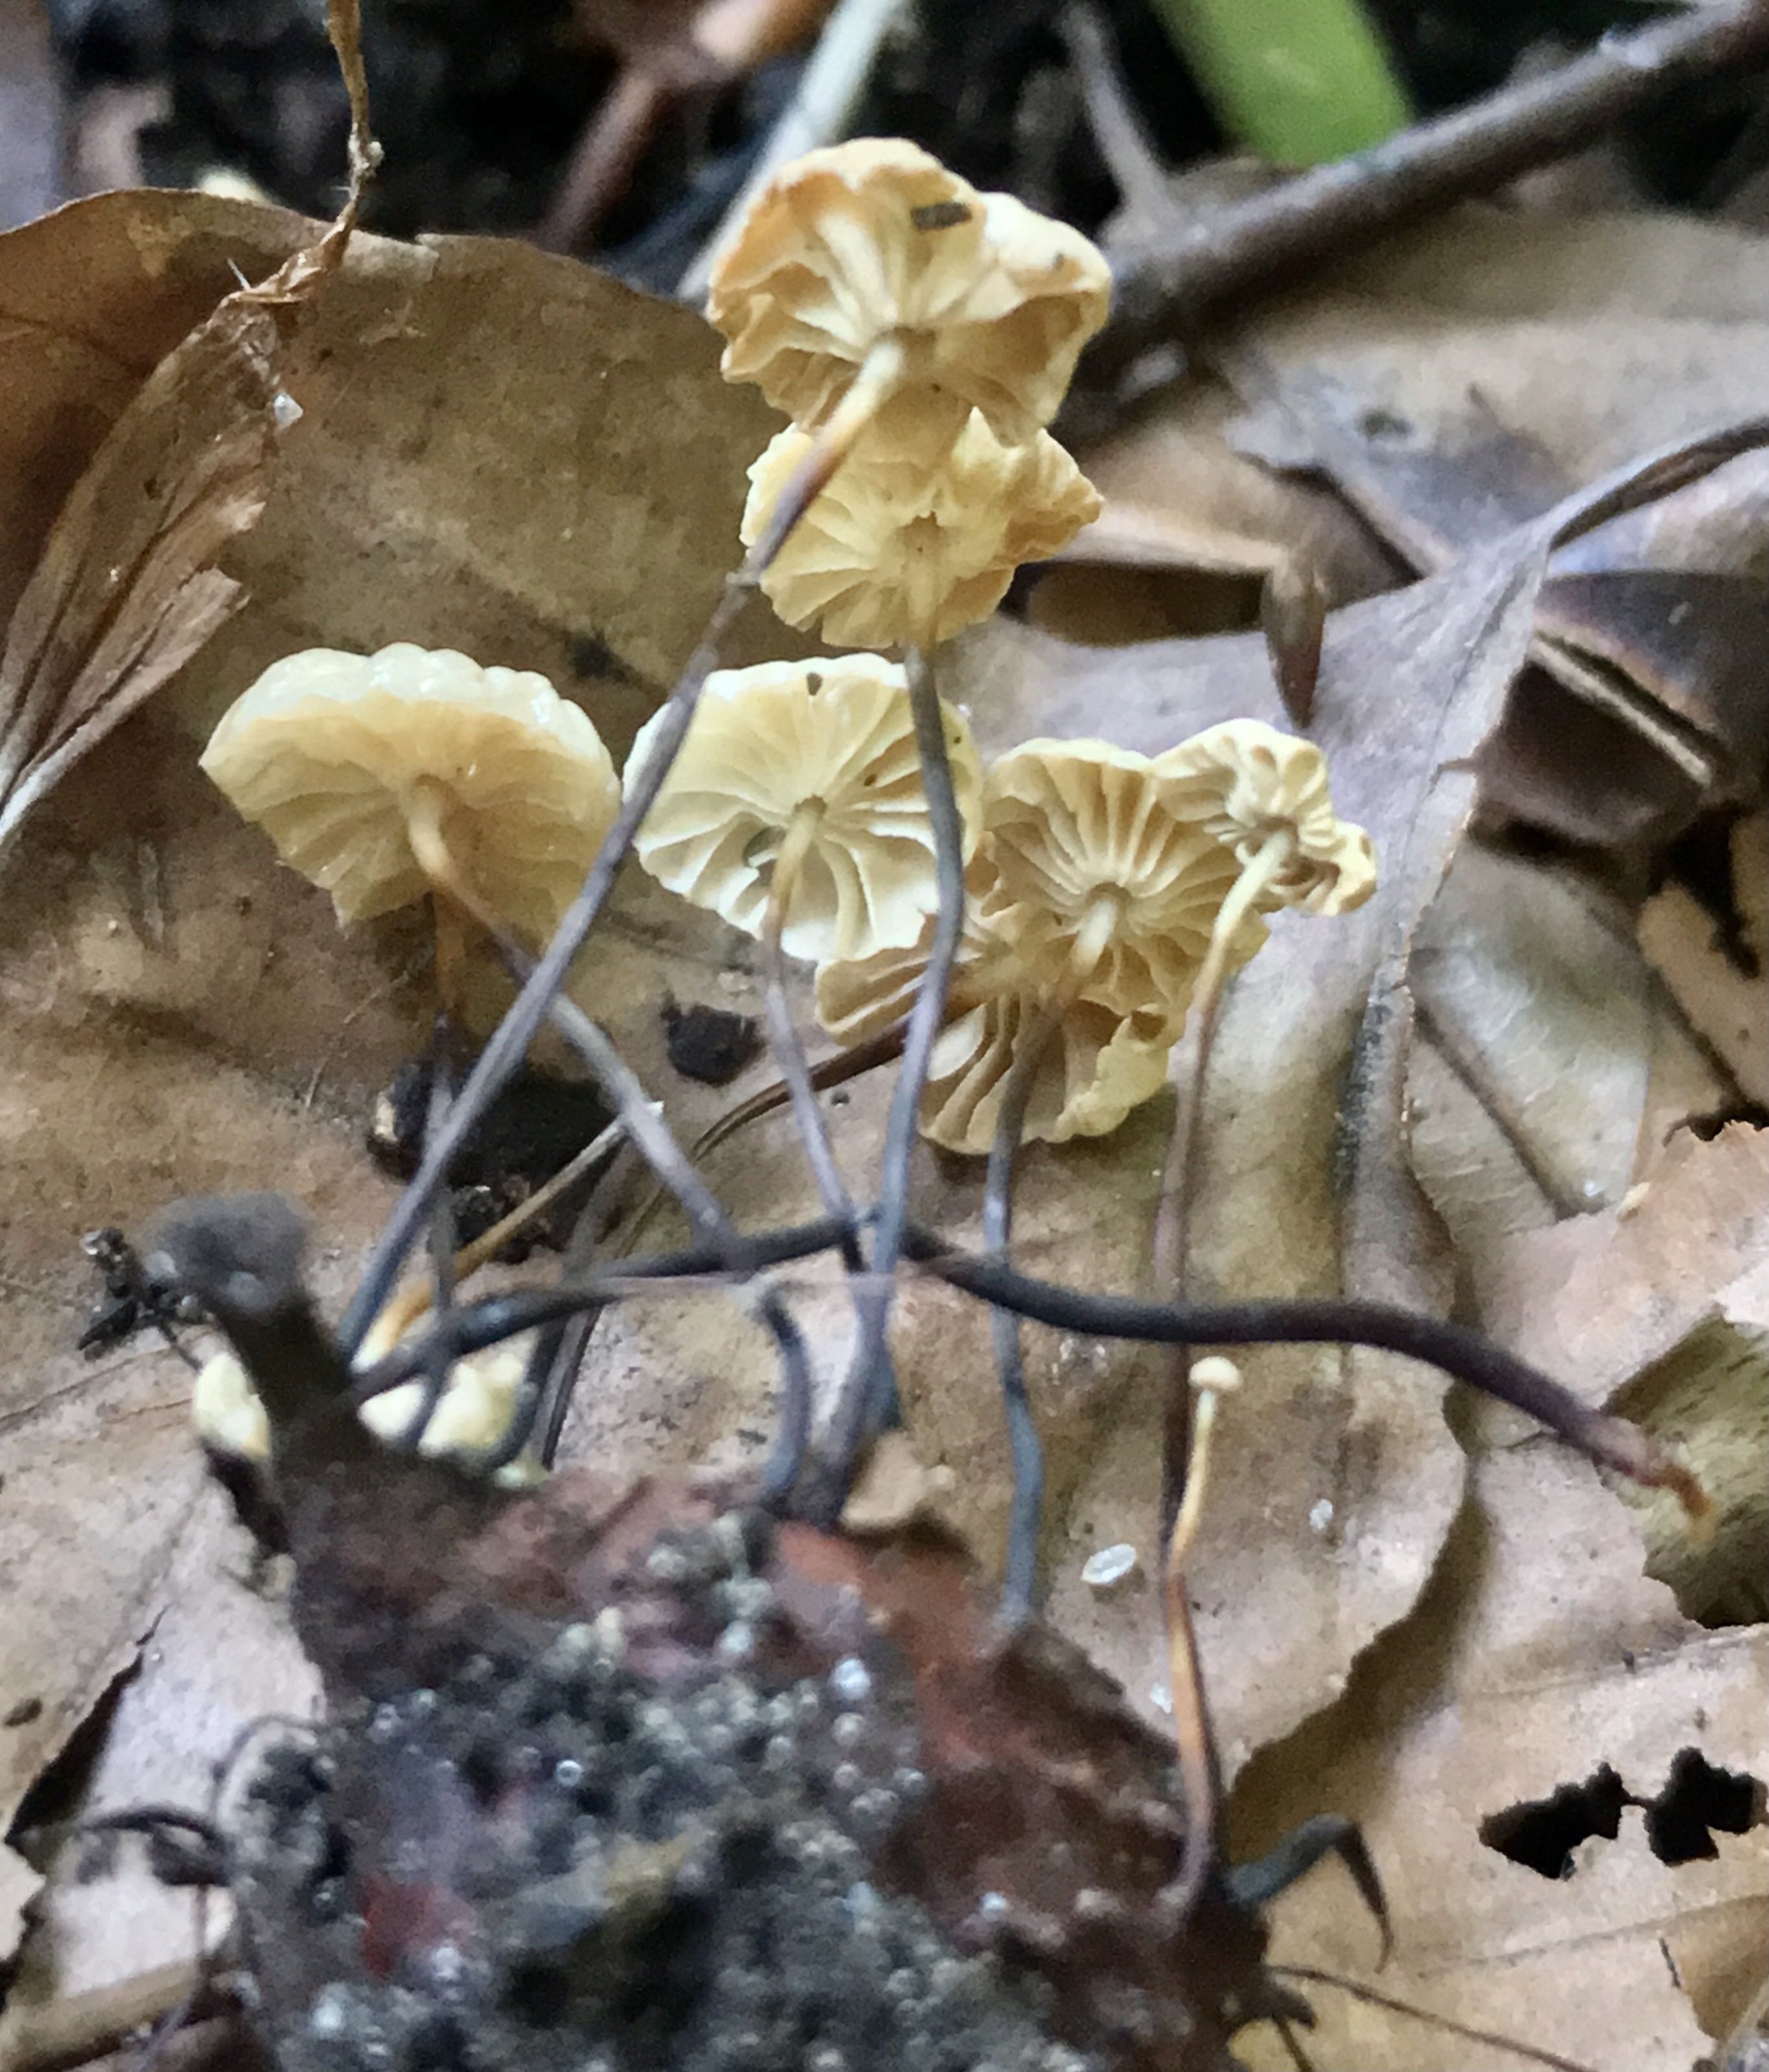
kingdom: Fungi
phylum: Basidiomycota
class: Agaricomycetes
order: Agaricales
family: Marasmiaceae
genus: Marasmius
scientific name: Marasmius rotula
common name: hjul-bruskhat
